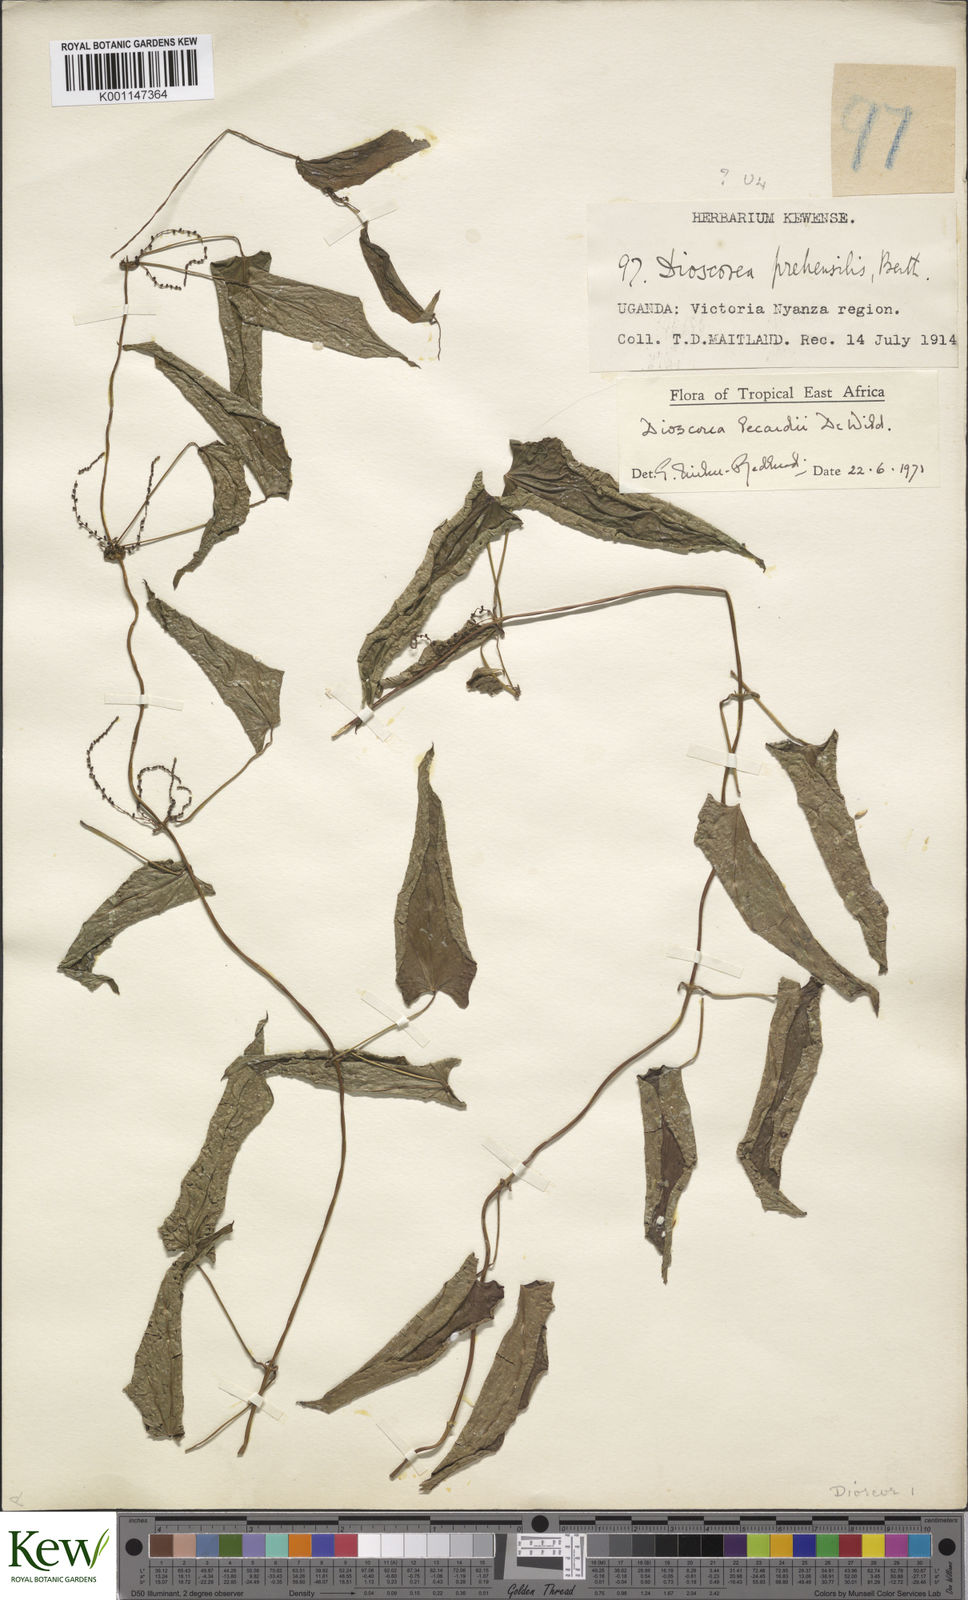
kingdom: Plantae
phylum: Tracheophyta
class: Liliopsida
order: Dioscoreales
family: Dioscoreaceae
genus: Dioscorea
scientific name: Dioscorea sagittifolia
